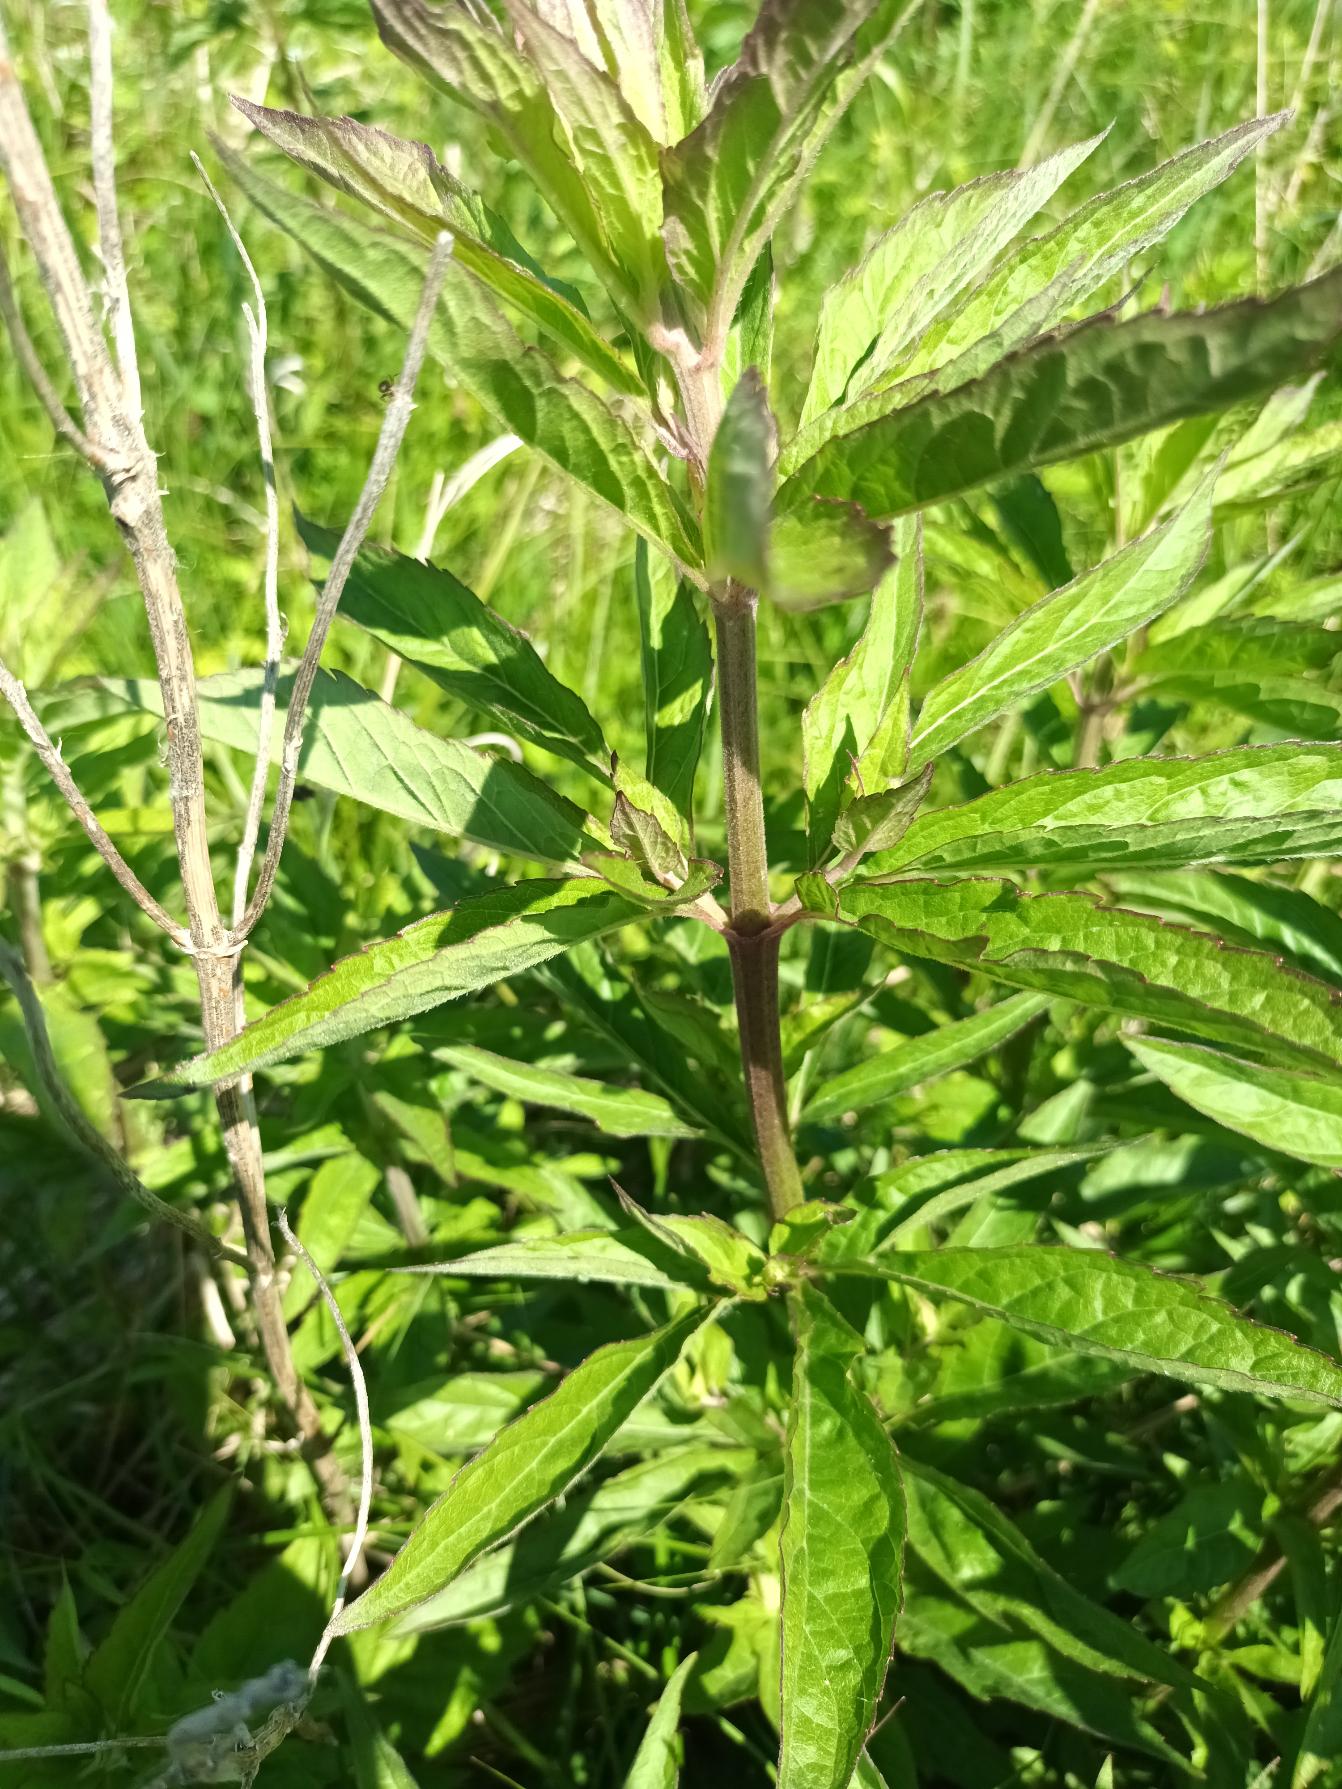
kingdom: Plantae
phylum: Tracheophyta
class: Magnoliopsida
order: Asterales
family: Asteraceae
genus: Eupatorium
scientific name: Eupatorium cannabinum
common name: Hjortetrøst
